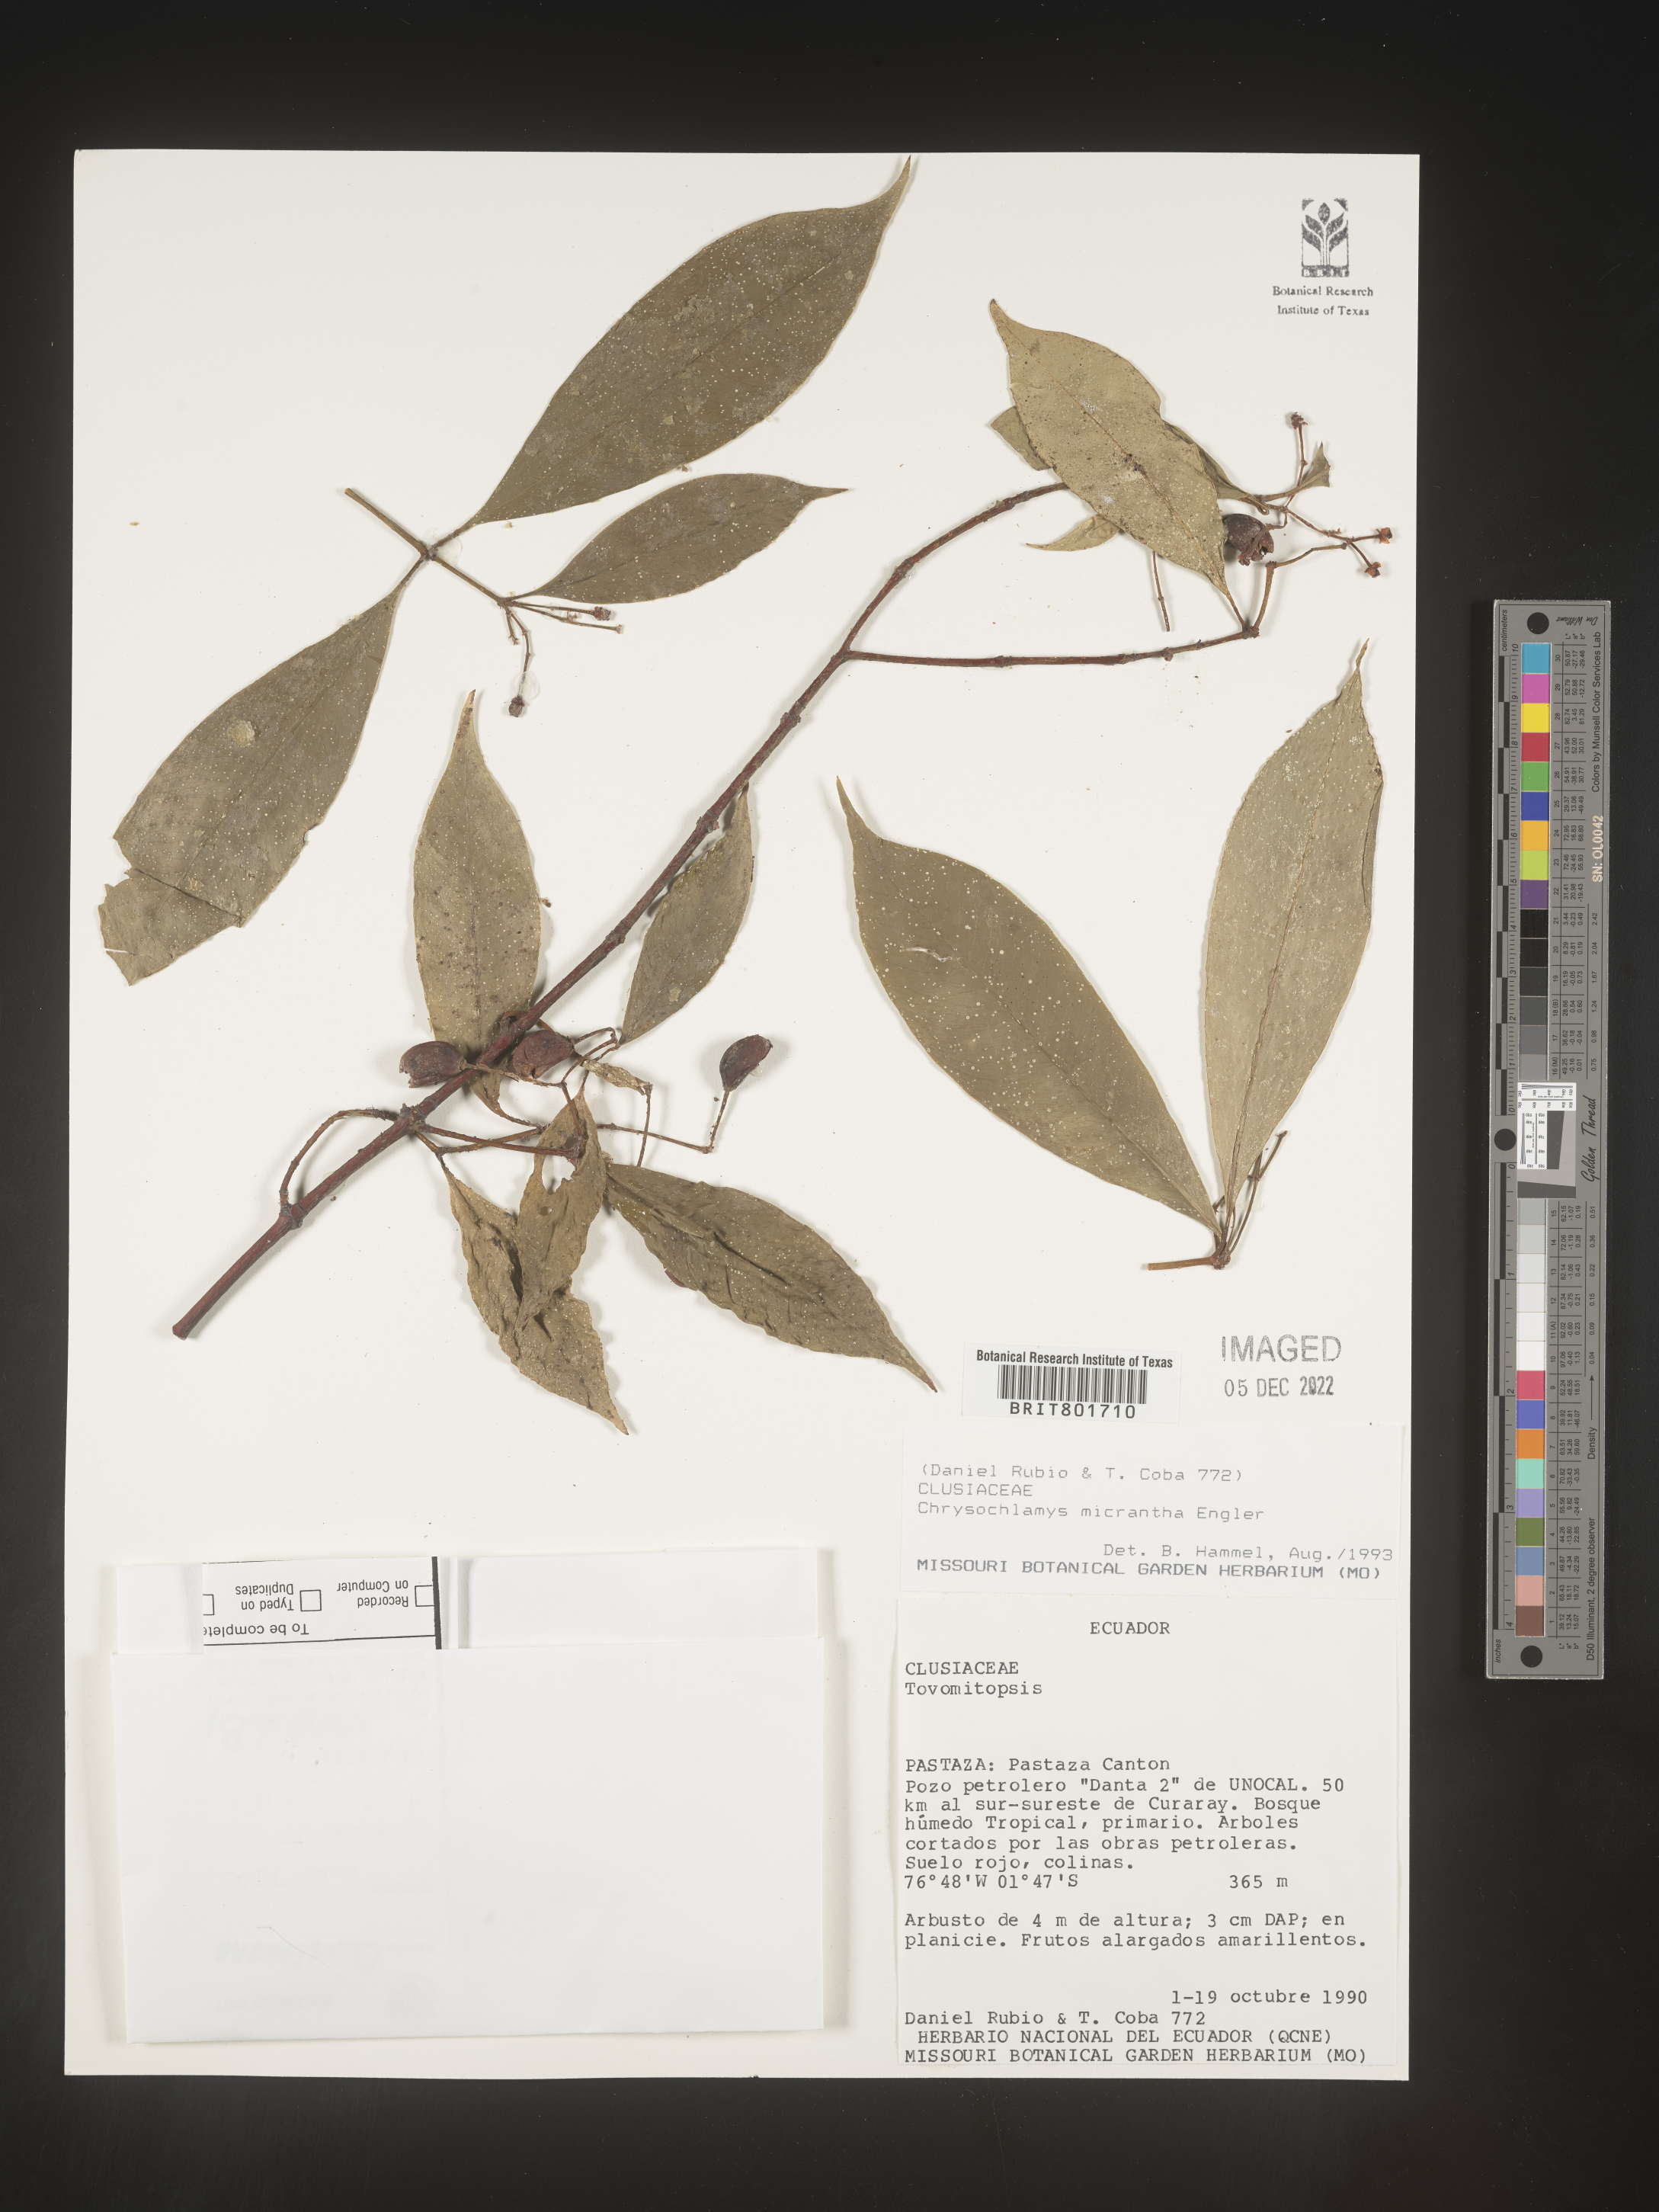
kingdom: Plantae
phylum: Tracheophyta
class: Magnoliopsida
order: Malpighiales
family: Clusiaceae
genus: Chrysochlamys
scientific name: Chrysochlamys
